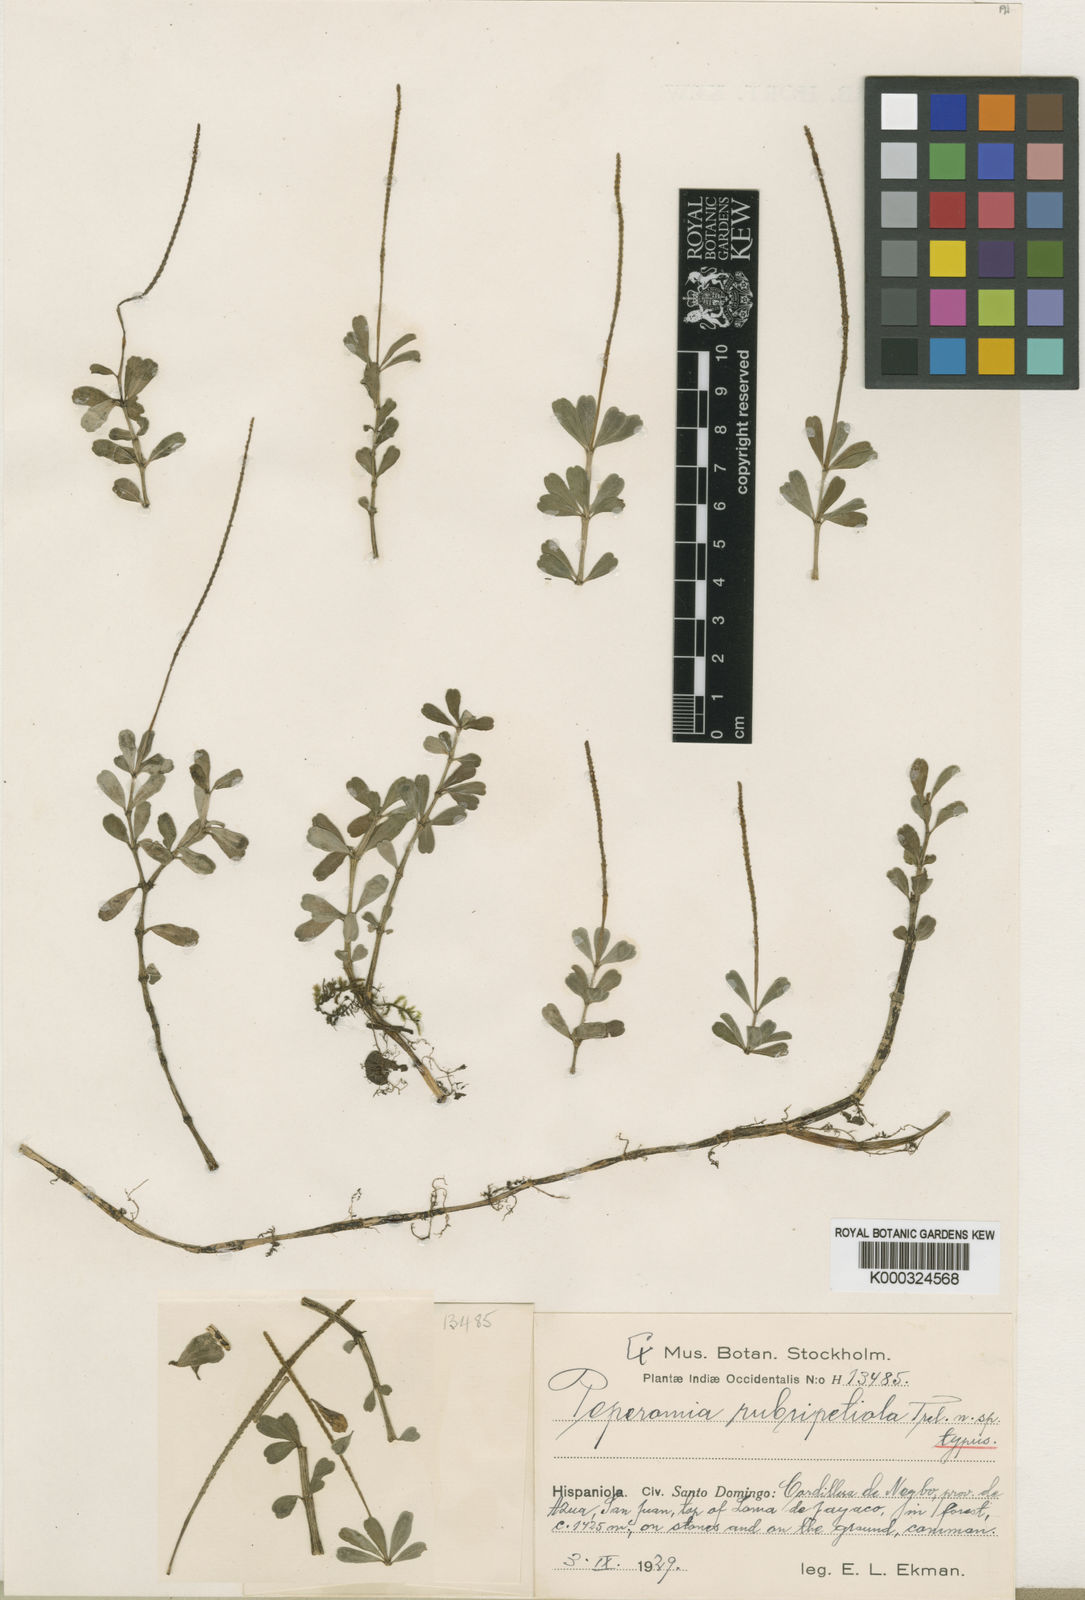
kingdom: Plantae
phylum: Tracheophyta
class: Magnoliopsida
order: Piperales
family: Piperaceae
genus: Peperomia
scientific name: Peperomia rubripetiola
